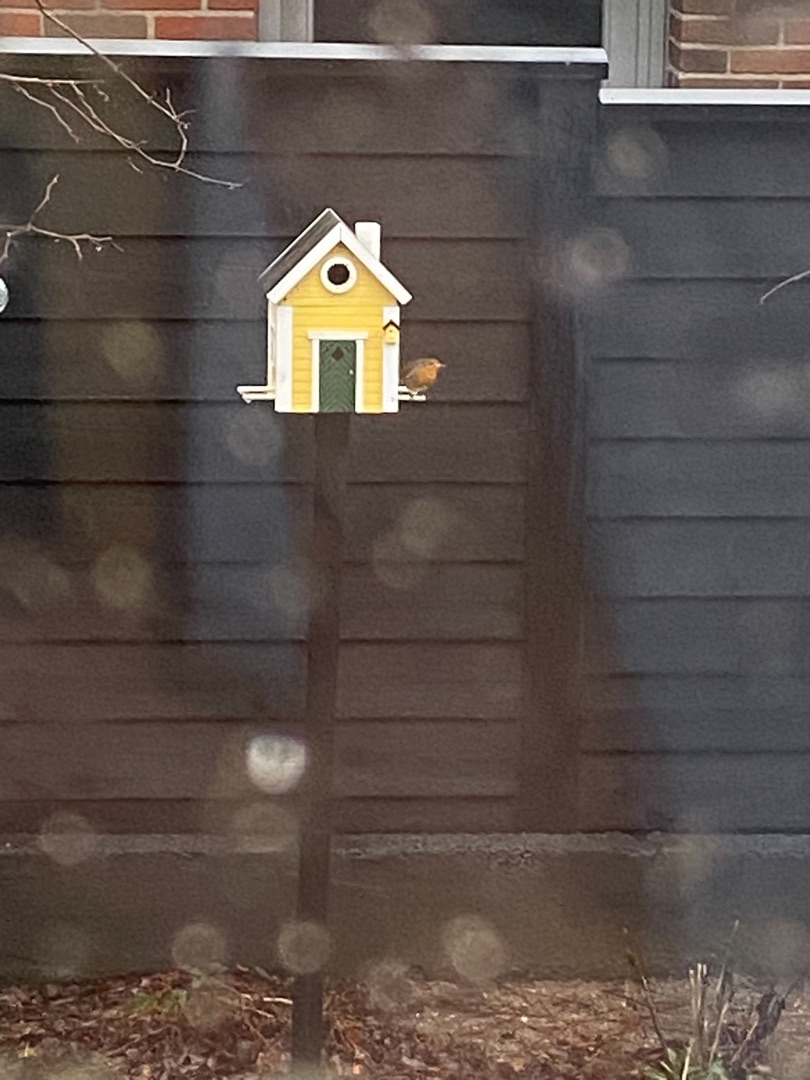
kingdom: Animalia
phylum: Chordata
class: Aves
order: Passeriformes
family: Muscicapidae
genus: Erithacus
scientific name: Erithacus rubecula
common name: Rødhals/rødkælk
